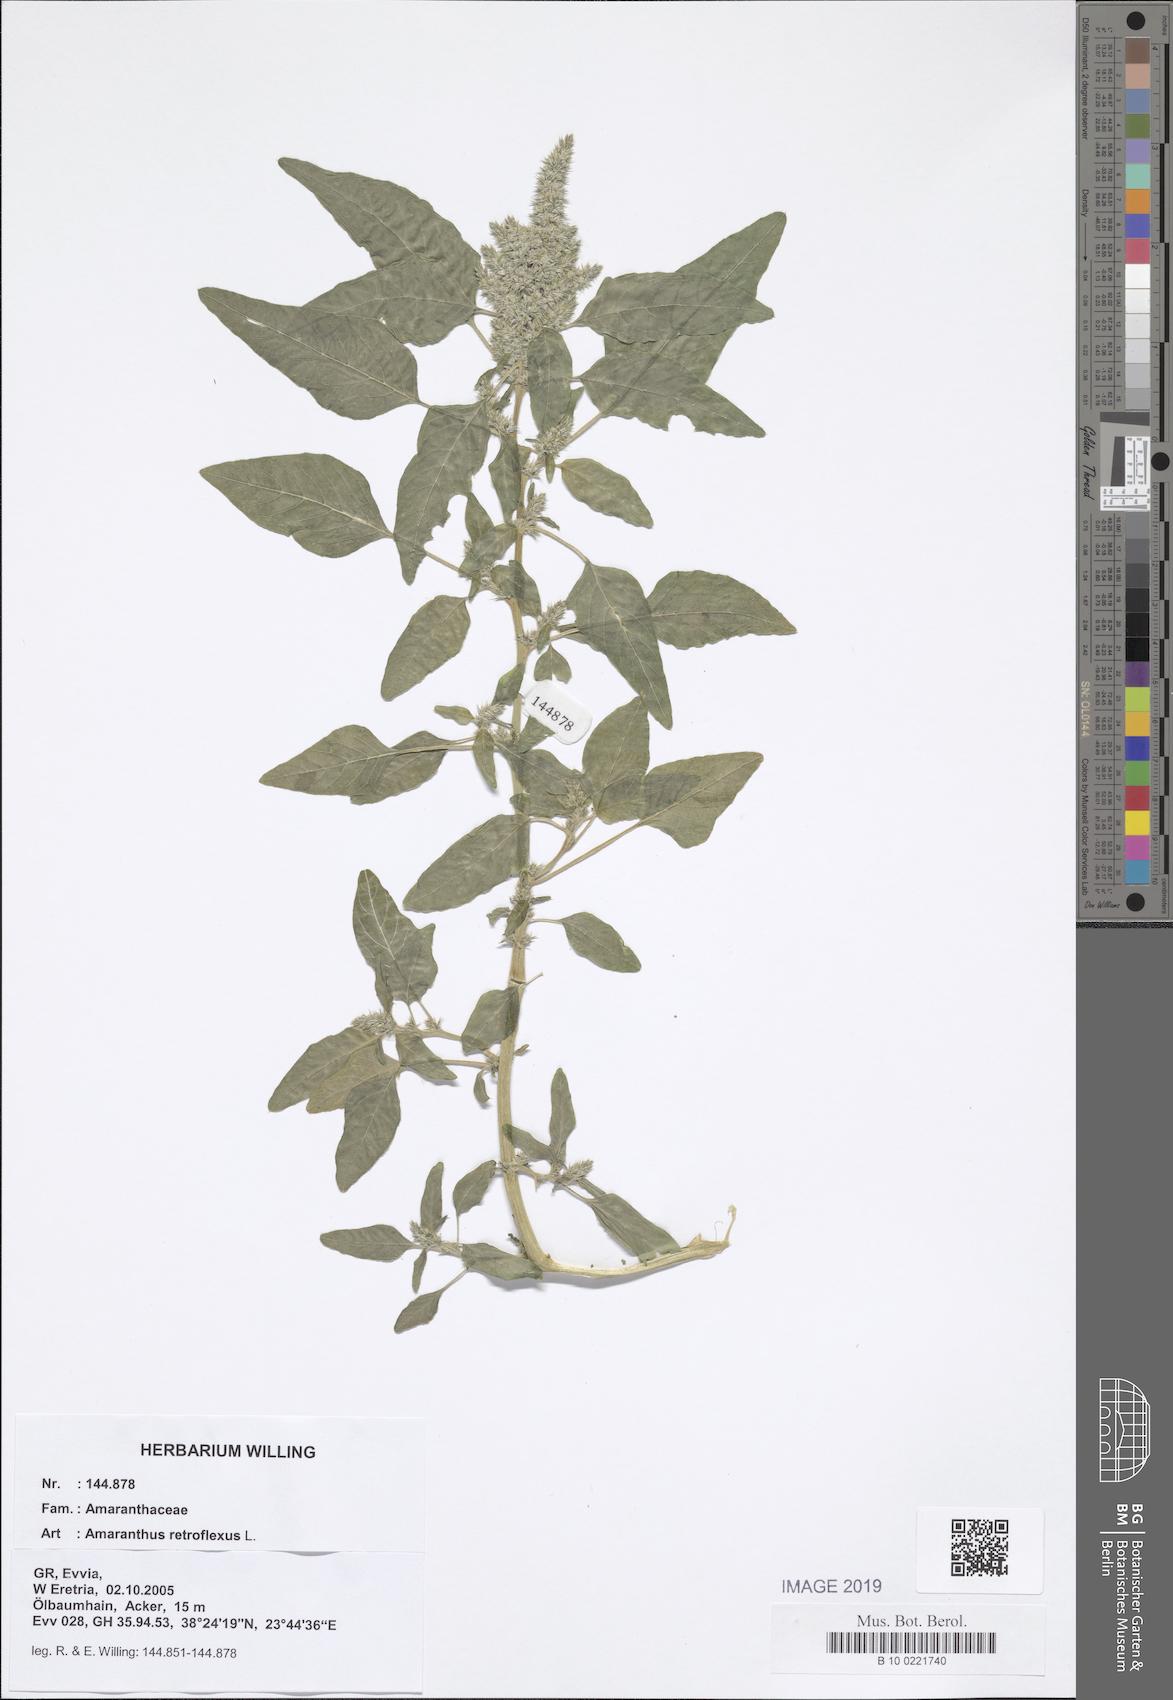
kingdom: Plantae
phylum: Tracheophyta
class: Magnoliopsida
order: Caryophyllales
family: Amaranthaceae
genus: Amaranthus
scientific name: Amaranthus retroflexus
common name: Redroot amaranth
